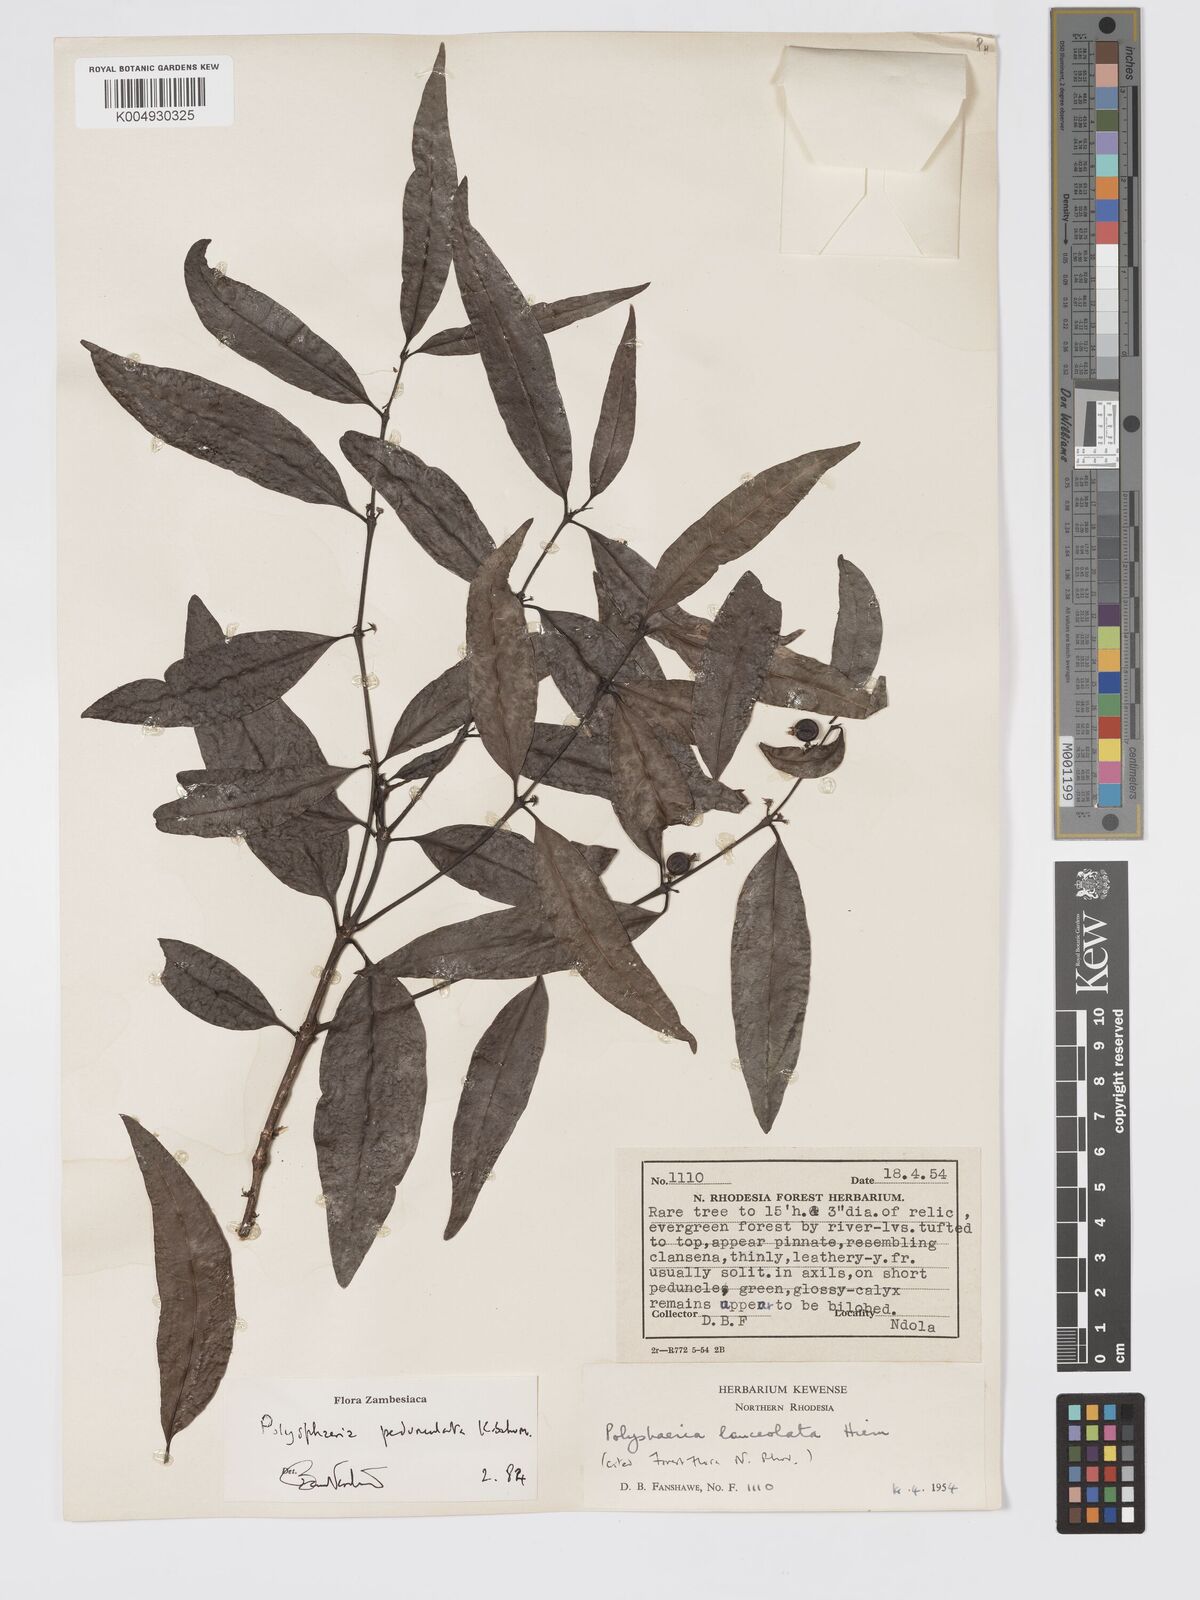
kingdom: Plantae
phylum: Tracheophyta
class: Magnoliopsida
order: Gentianales
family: Rubiaceae
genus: Polysphaeria
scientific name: Polysphaeria pedunculata
